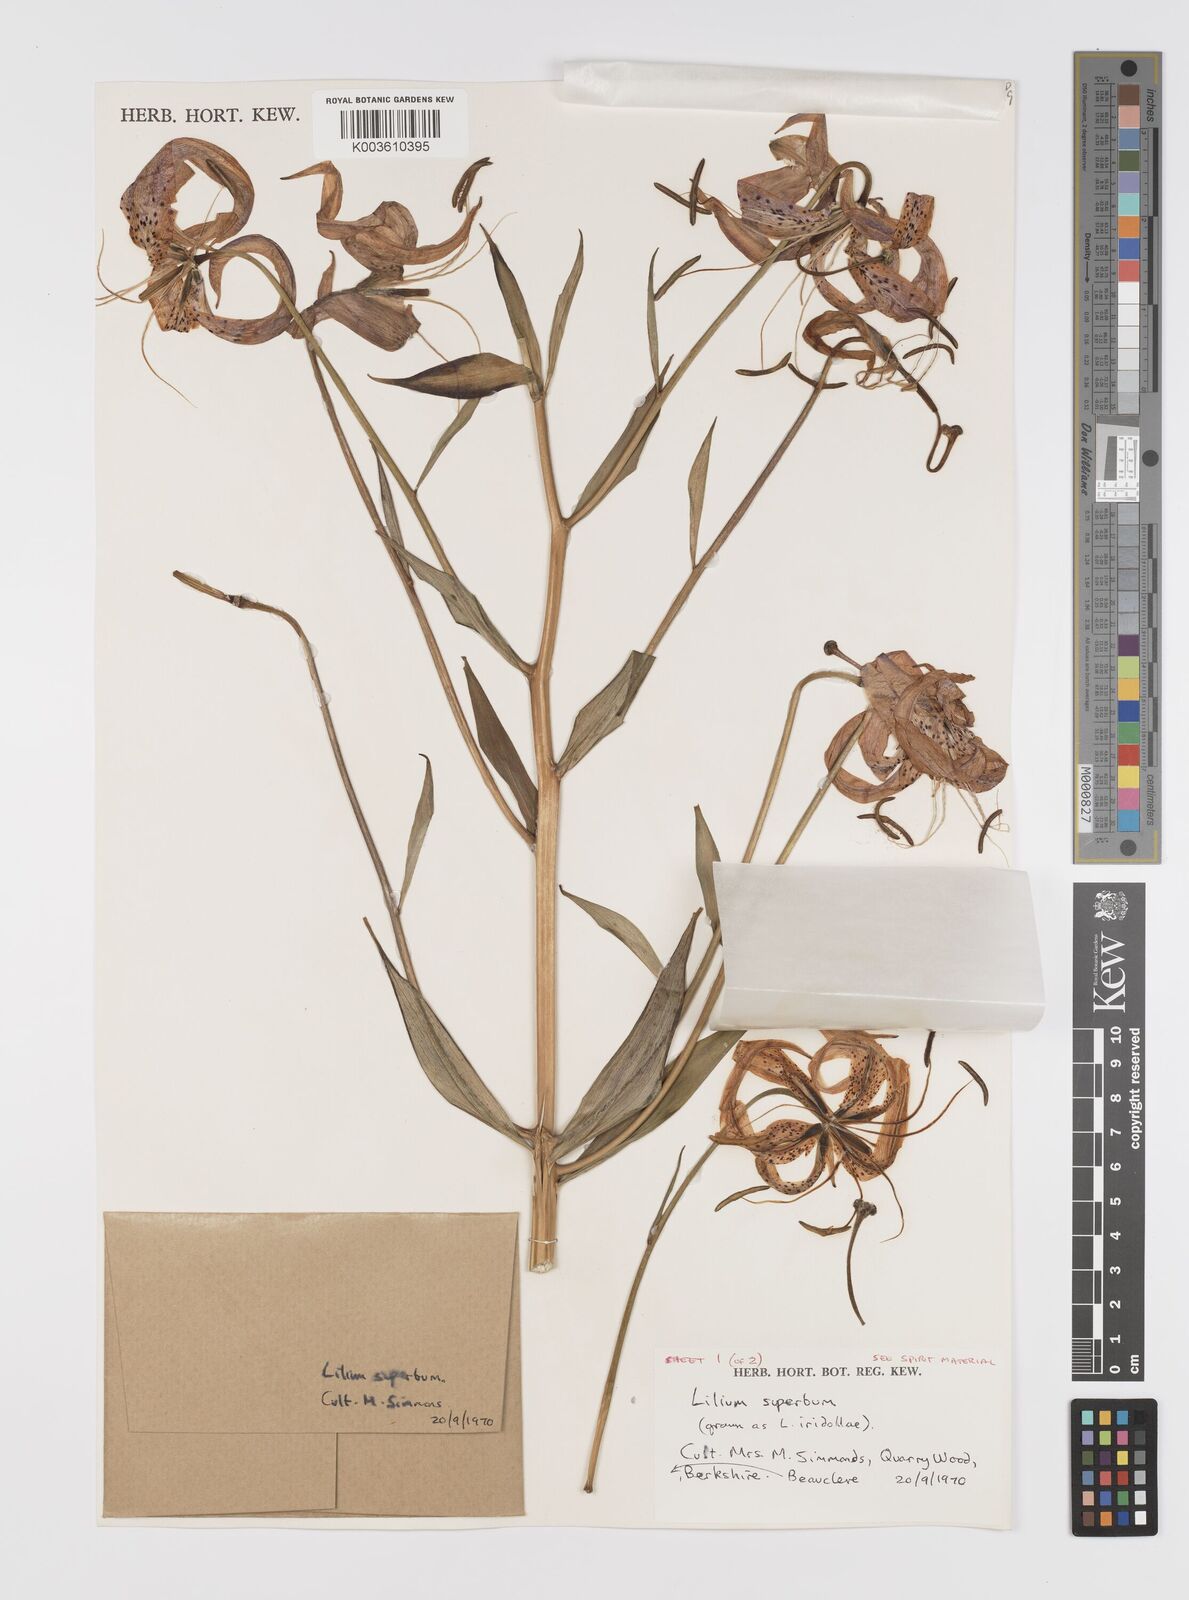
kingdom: Plantae
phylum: Tracheophyta
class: Liliopsida
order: Liliales
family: Liliaceae
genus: Lilium
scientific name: Lilium
